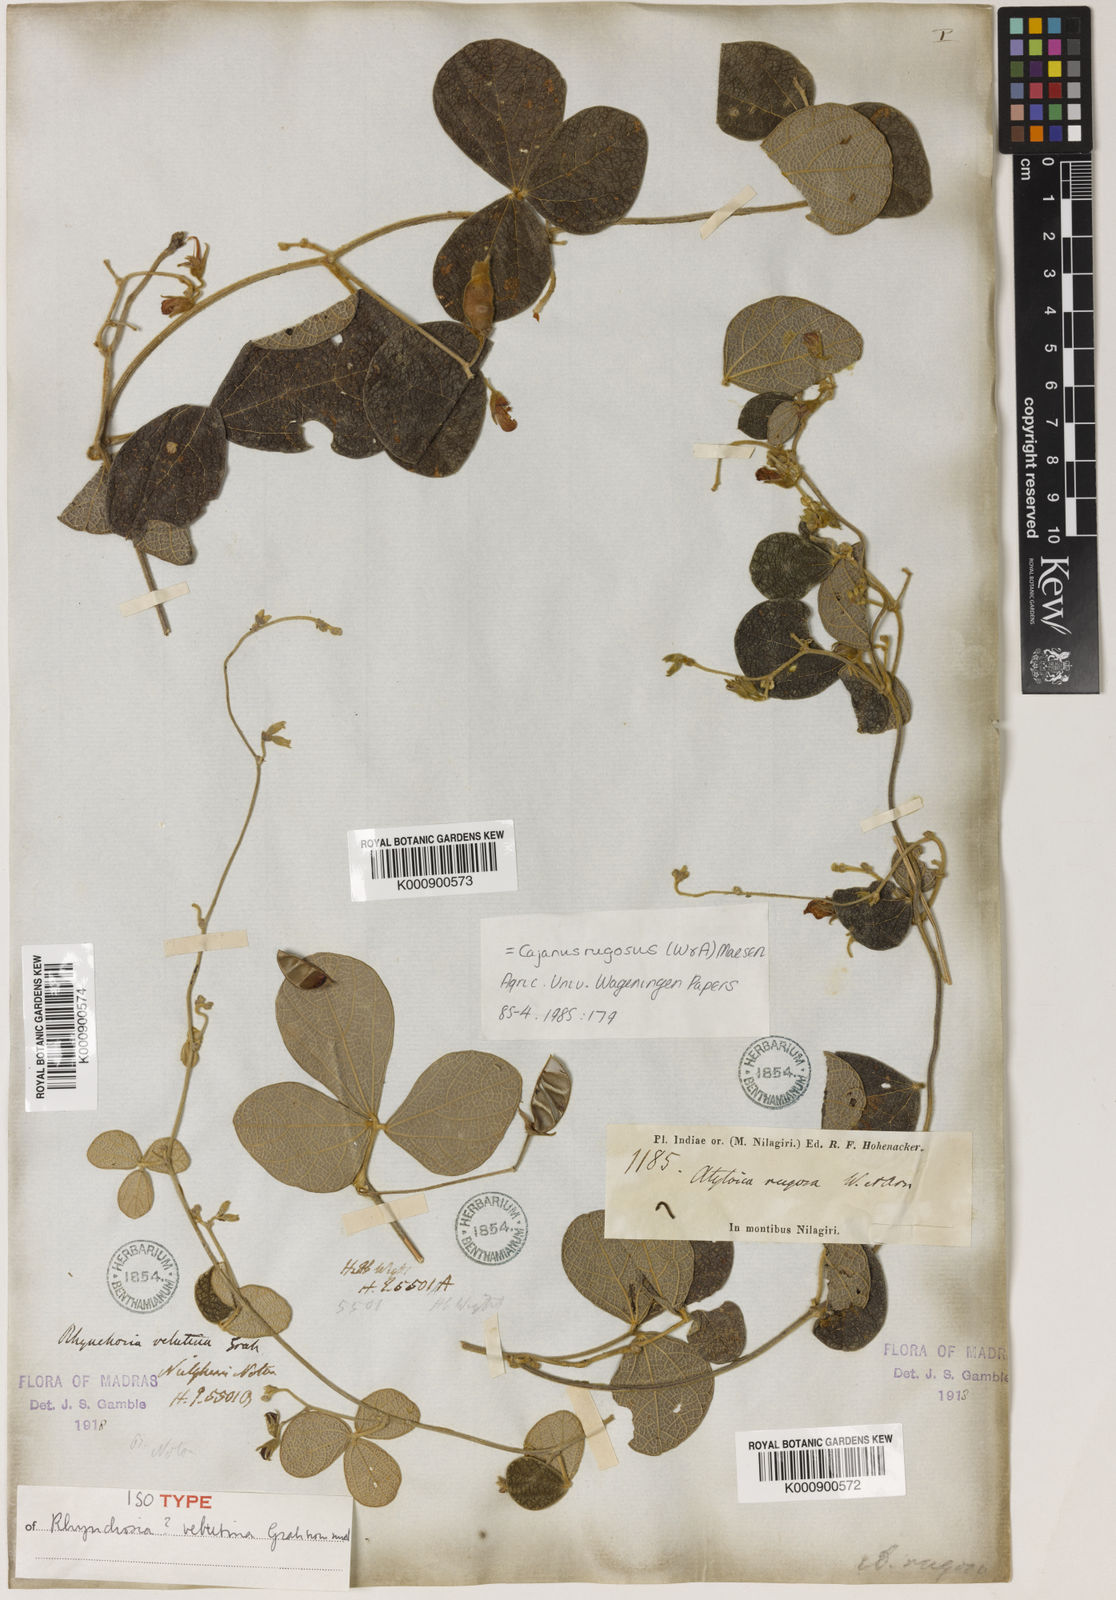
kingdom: Plantae
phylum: Tracheophyta
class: Magnoliopsida
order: Fabales
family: Fabaceae
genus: Cajanus
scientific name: Cajanus rugosus
